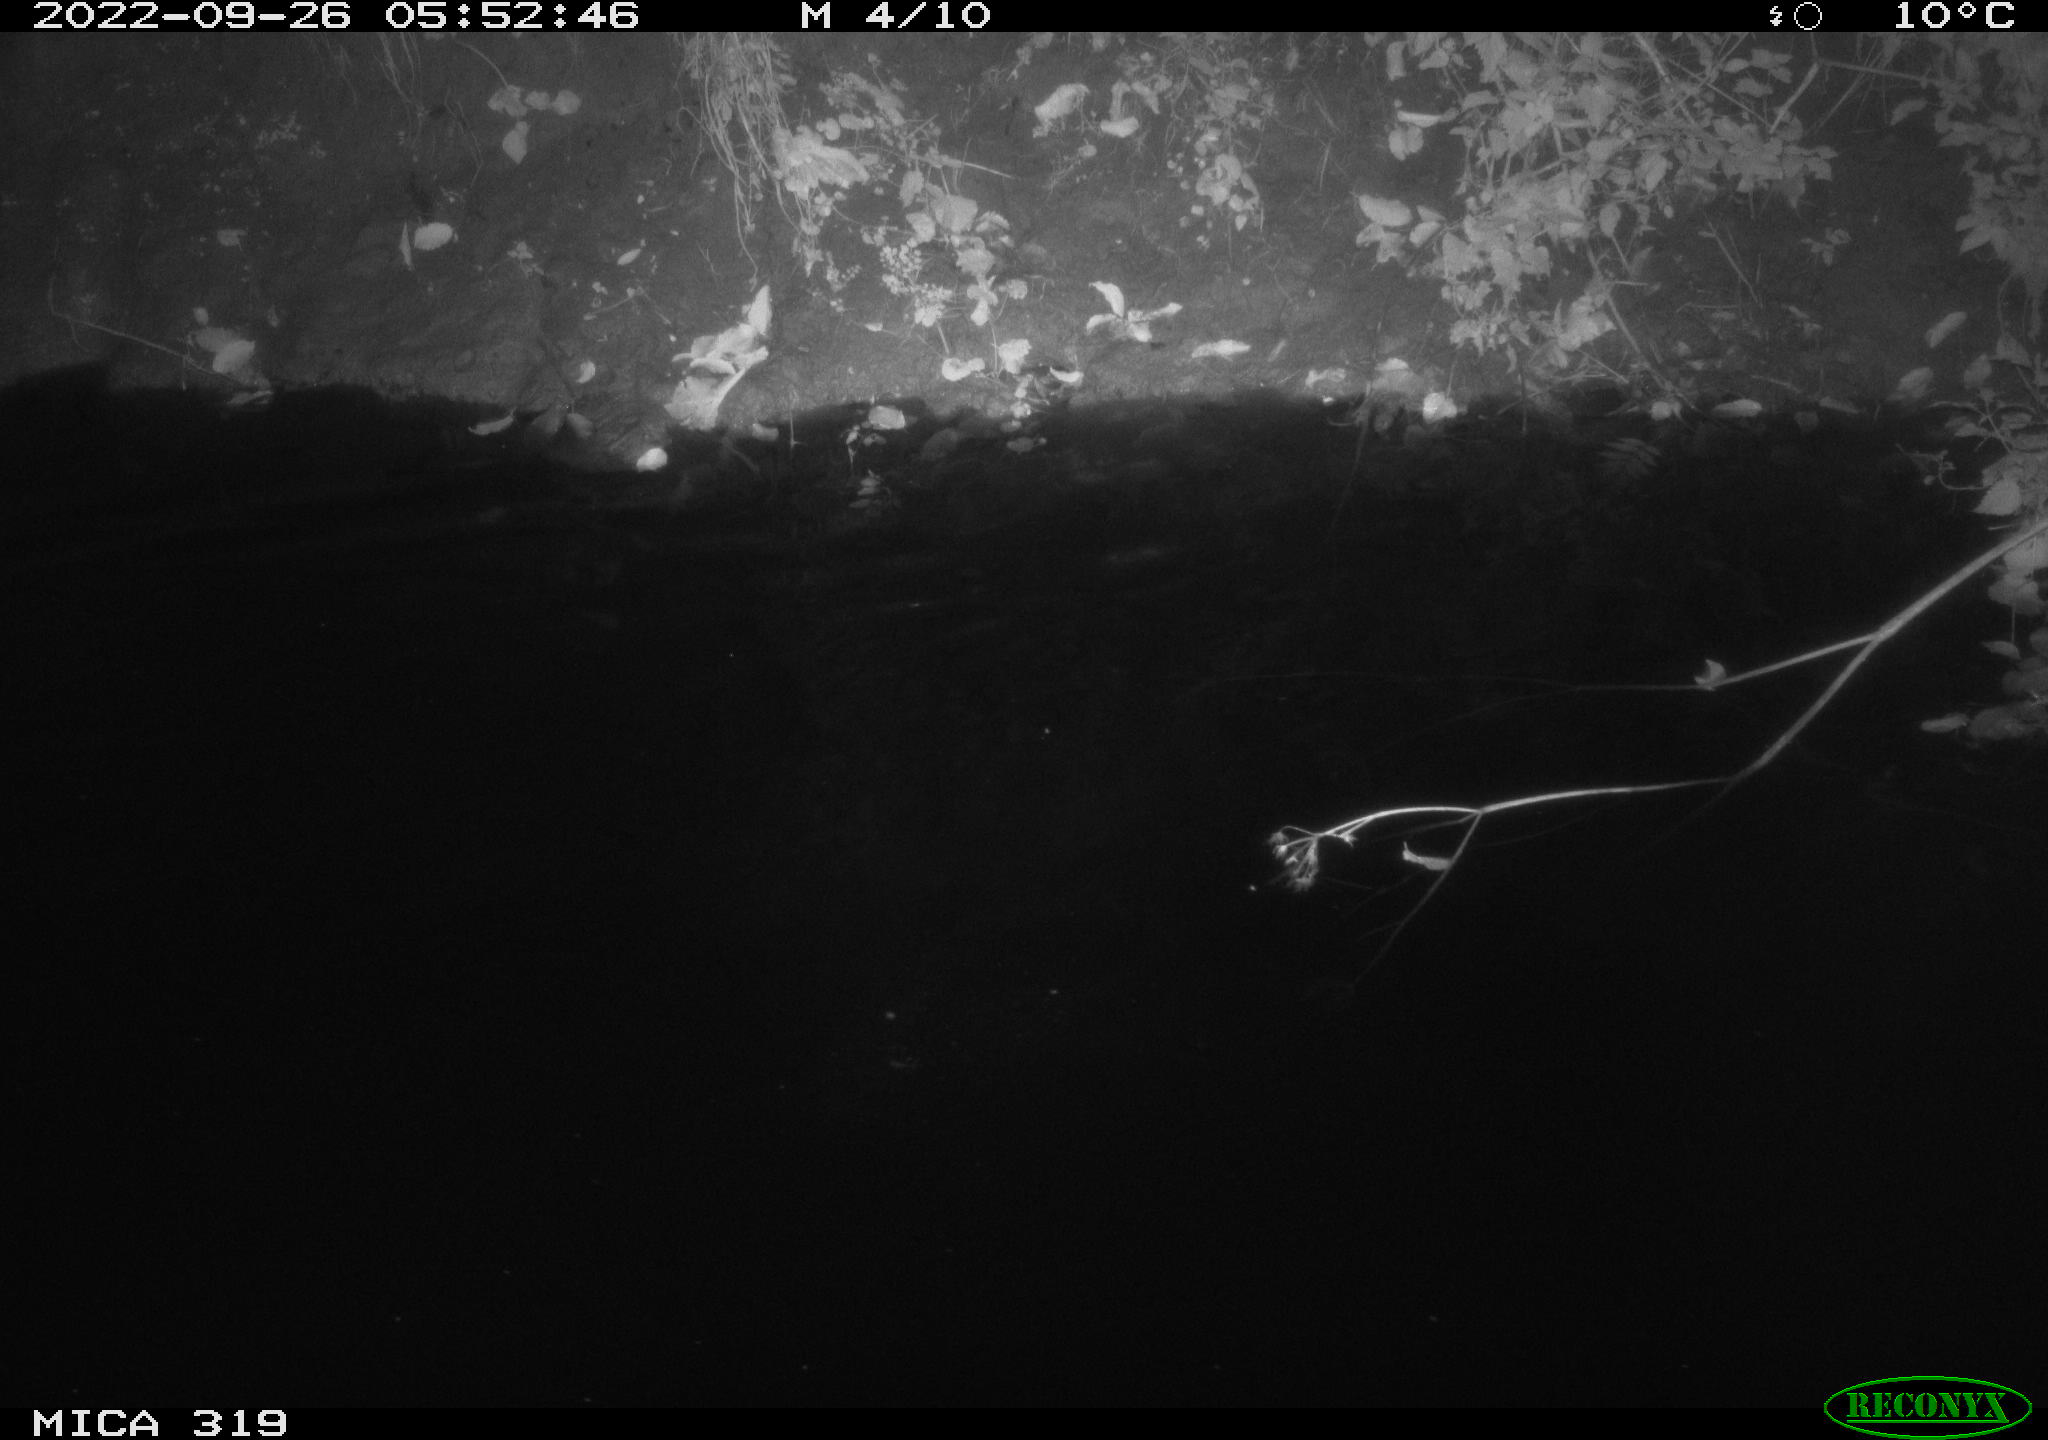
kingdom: Animalia
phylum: Chordata
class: Aves
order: Anseriformes
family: Anatidae
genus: Anas
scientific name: Anas
